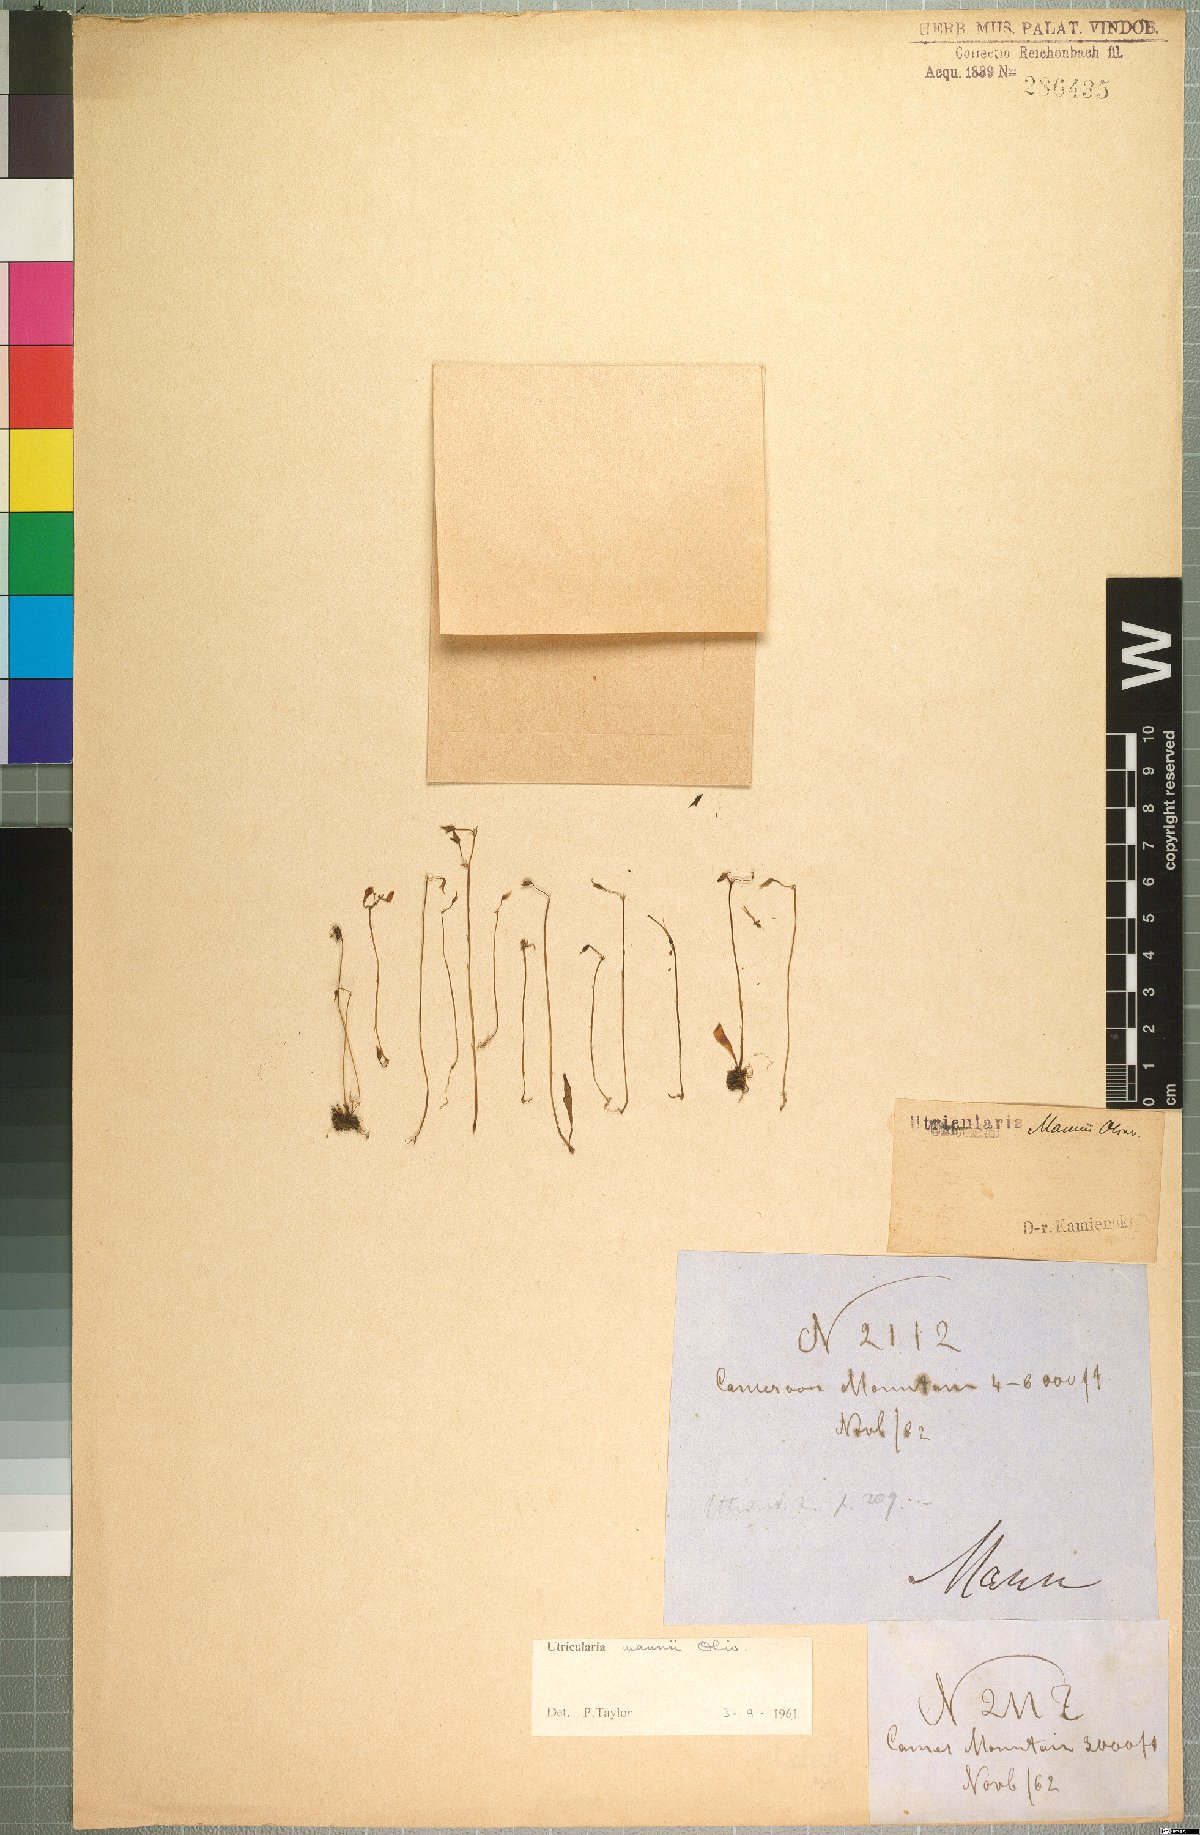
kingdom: Plantae
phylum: Tracheophyta
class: Magnoliopsida
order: Lamiales
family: Lentibulariaceae
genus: Utricularia
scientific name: Utricularia mannii
